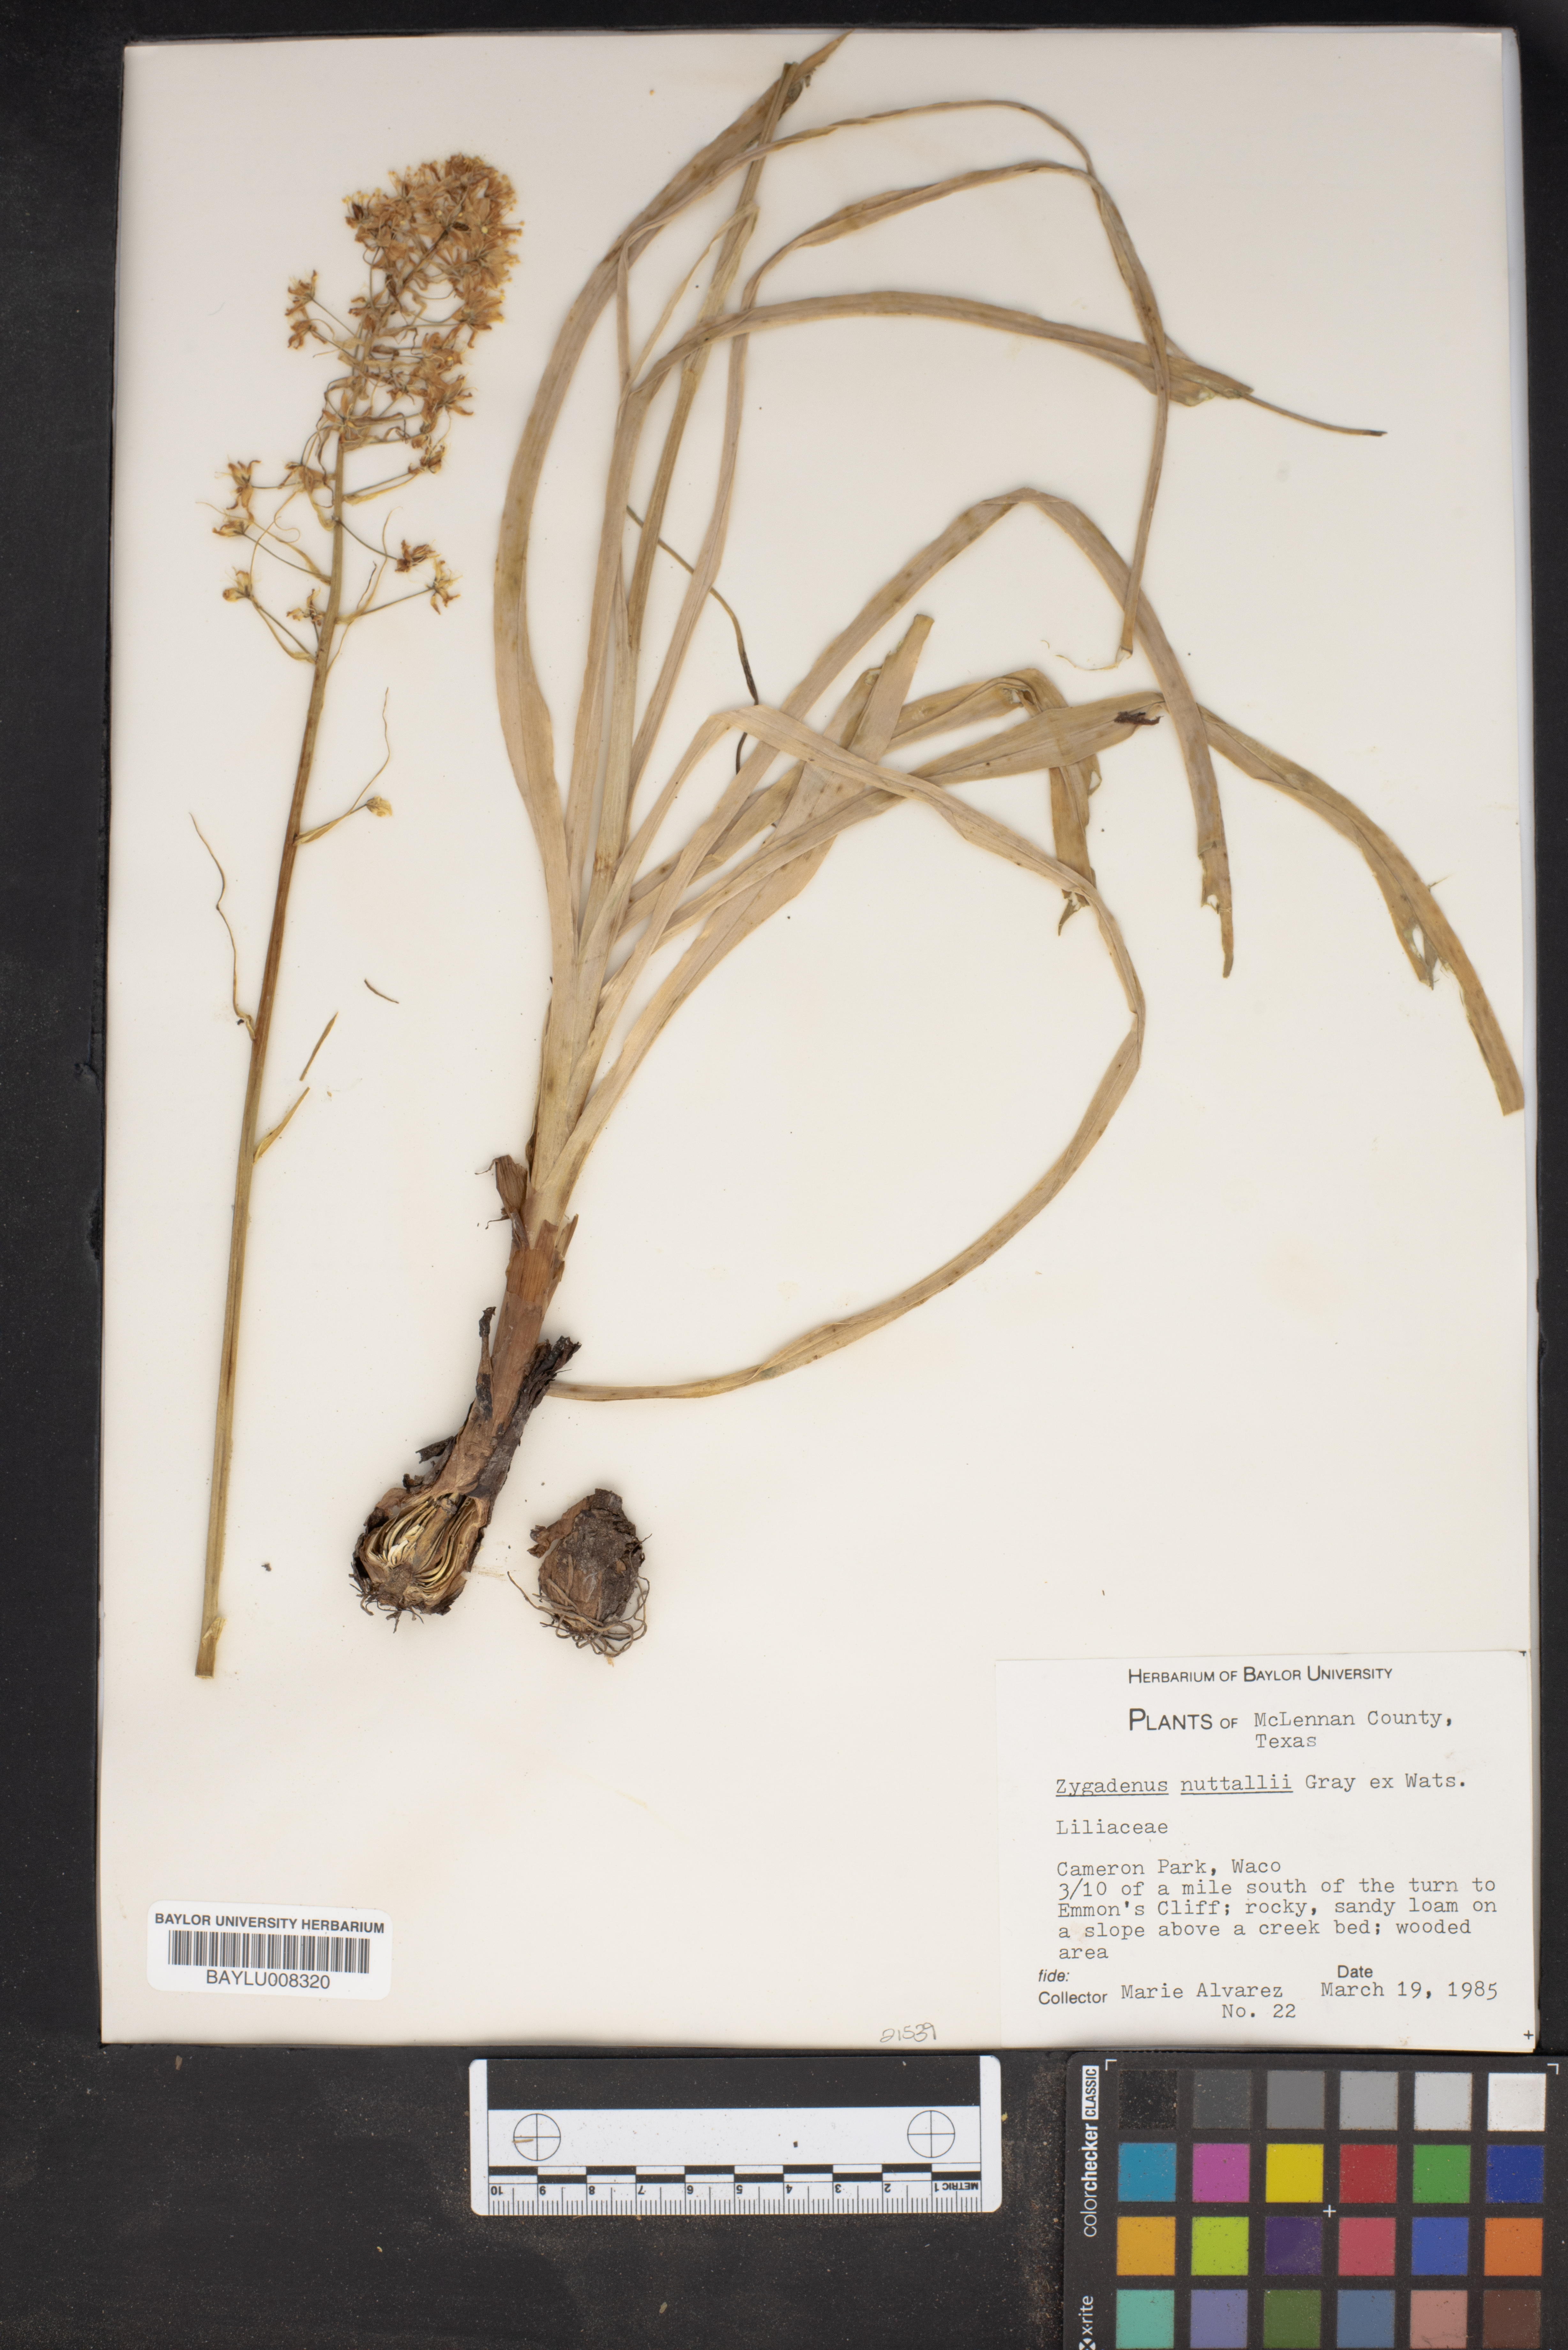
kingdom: Plantae
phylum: Tracheophyta
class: Liliopsida
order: Liliales
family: Melanthiaceae
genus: Toxicoscordion
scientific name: Toxicoscordion nuttallii
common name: Poison sego
